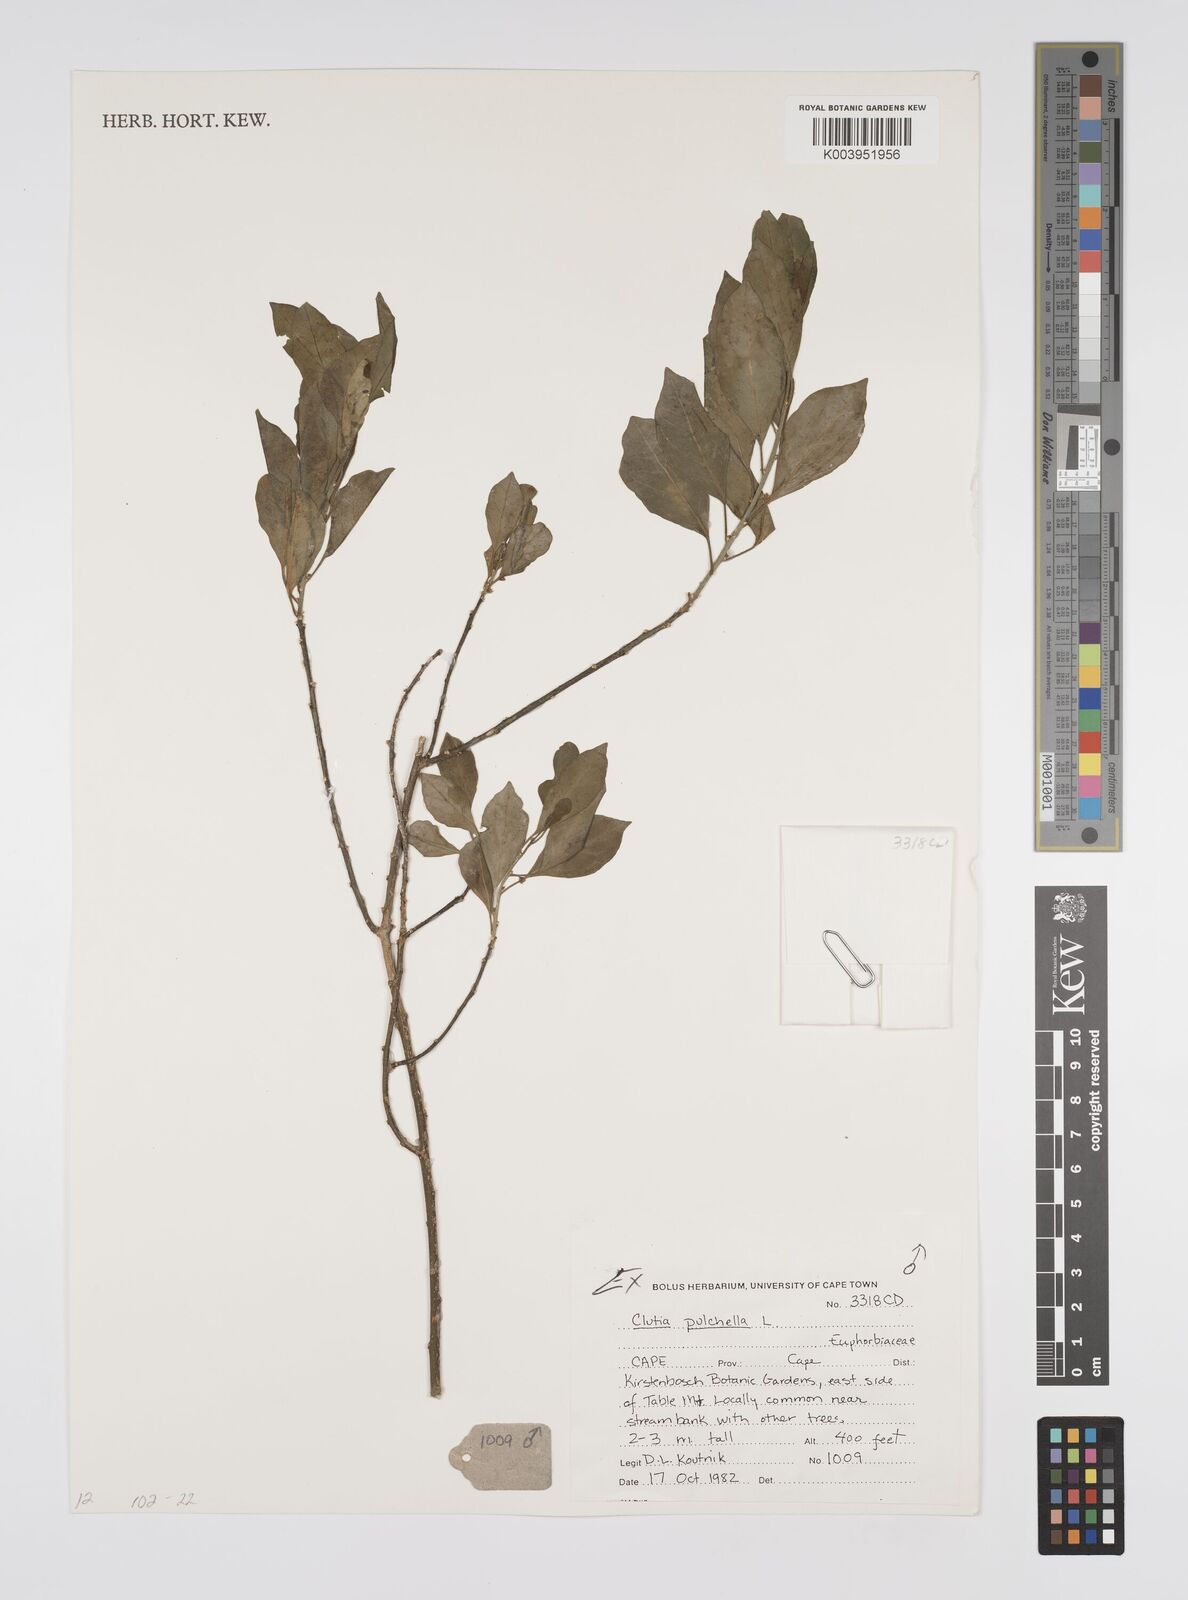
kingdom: Plantae
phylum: Tracheophyta
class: Magnoliopsida
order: Malpighiales
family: Peraceae
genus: Clutia
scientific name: Clutia pulchella
